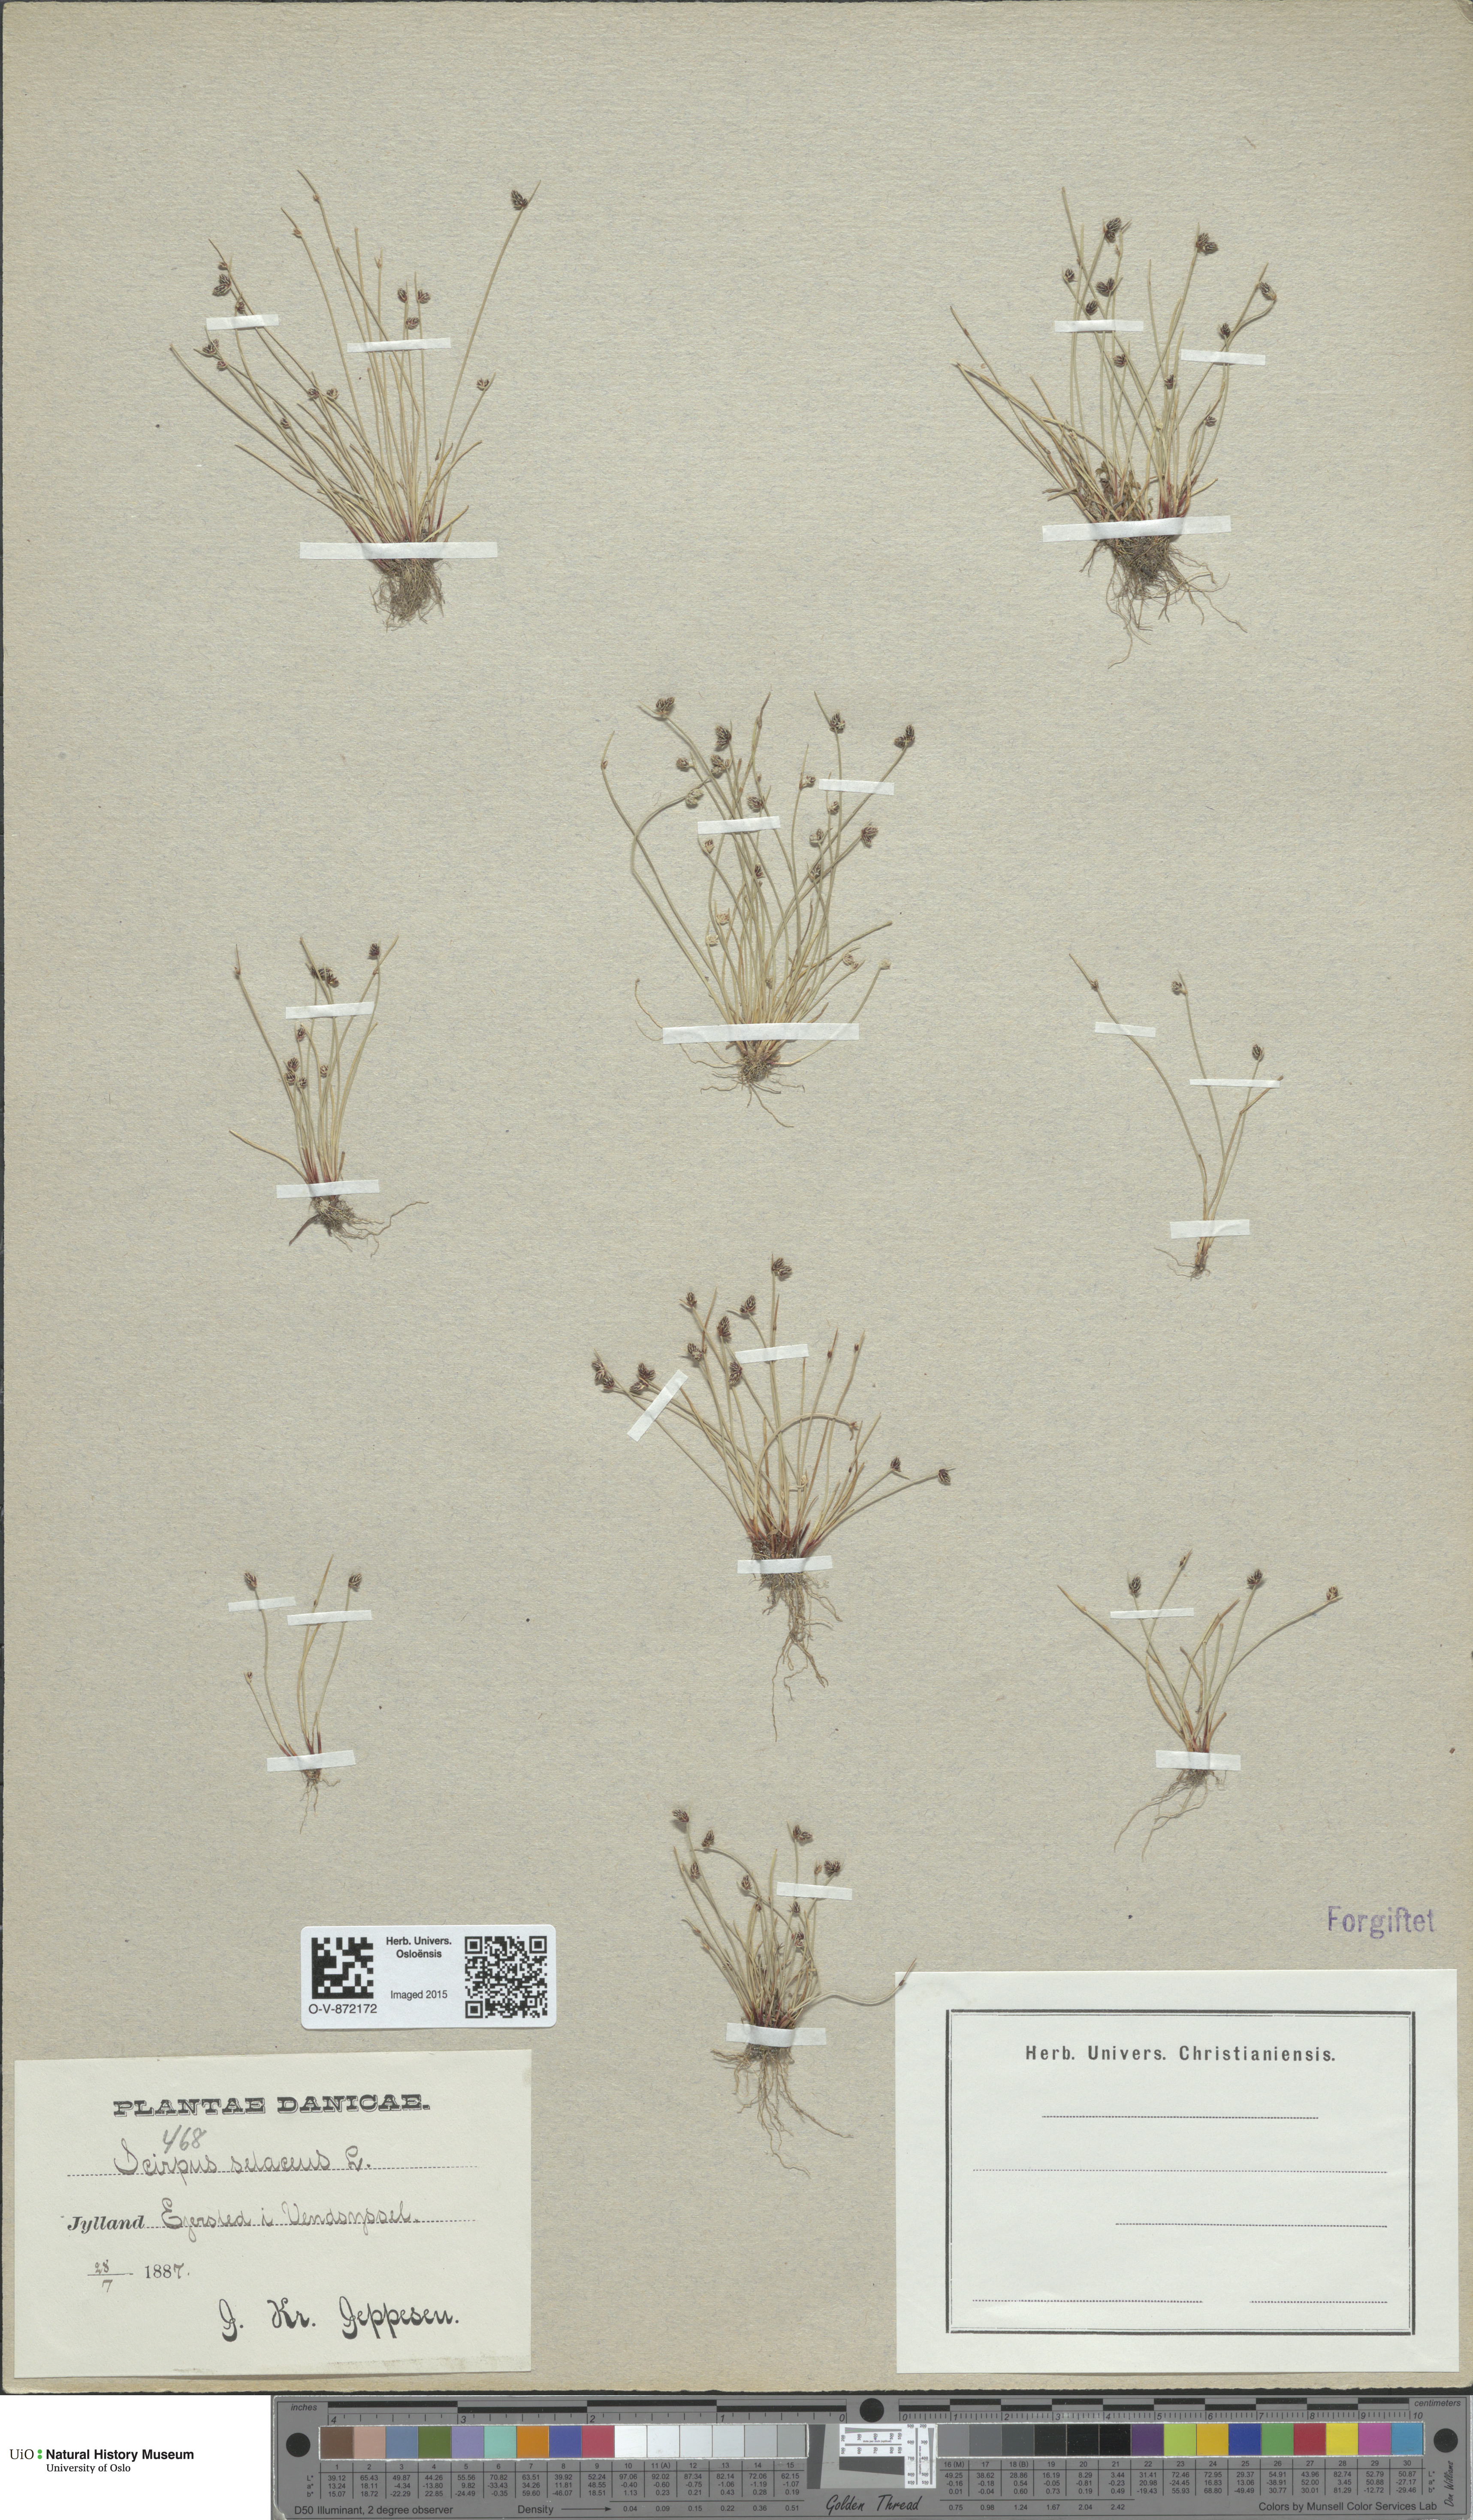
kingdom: Plantae
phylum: Tracheophyta
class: Liliopsida
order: Poales
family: Cyperaceae
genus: Isolepis
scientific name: Isolepis setacea
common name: Bristle club-rush
